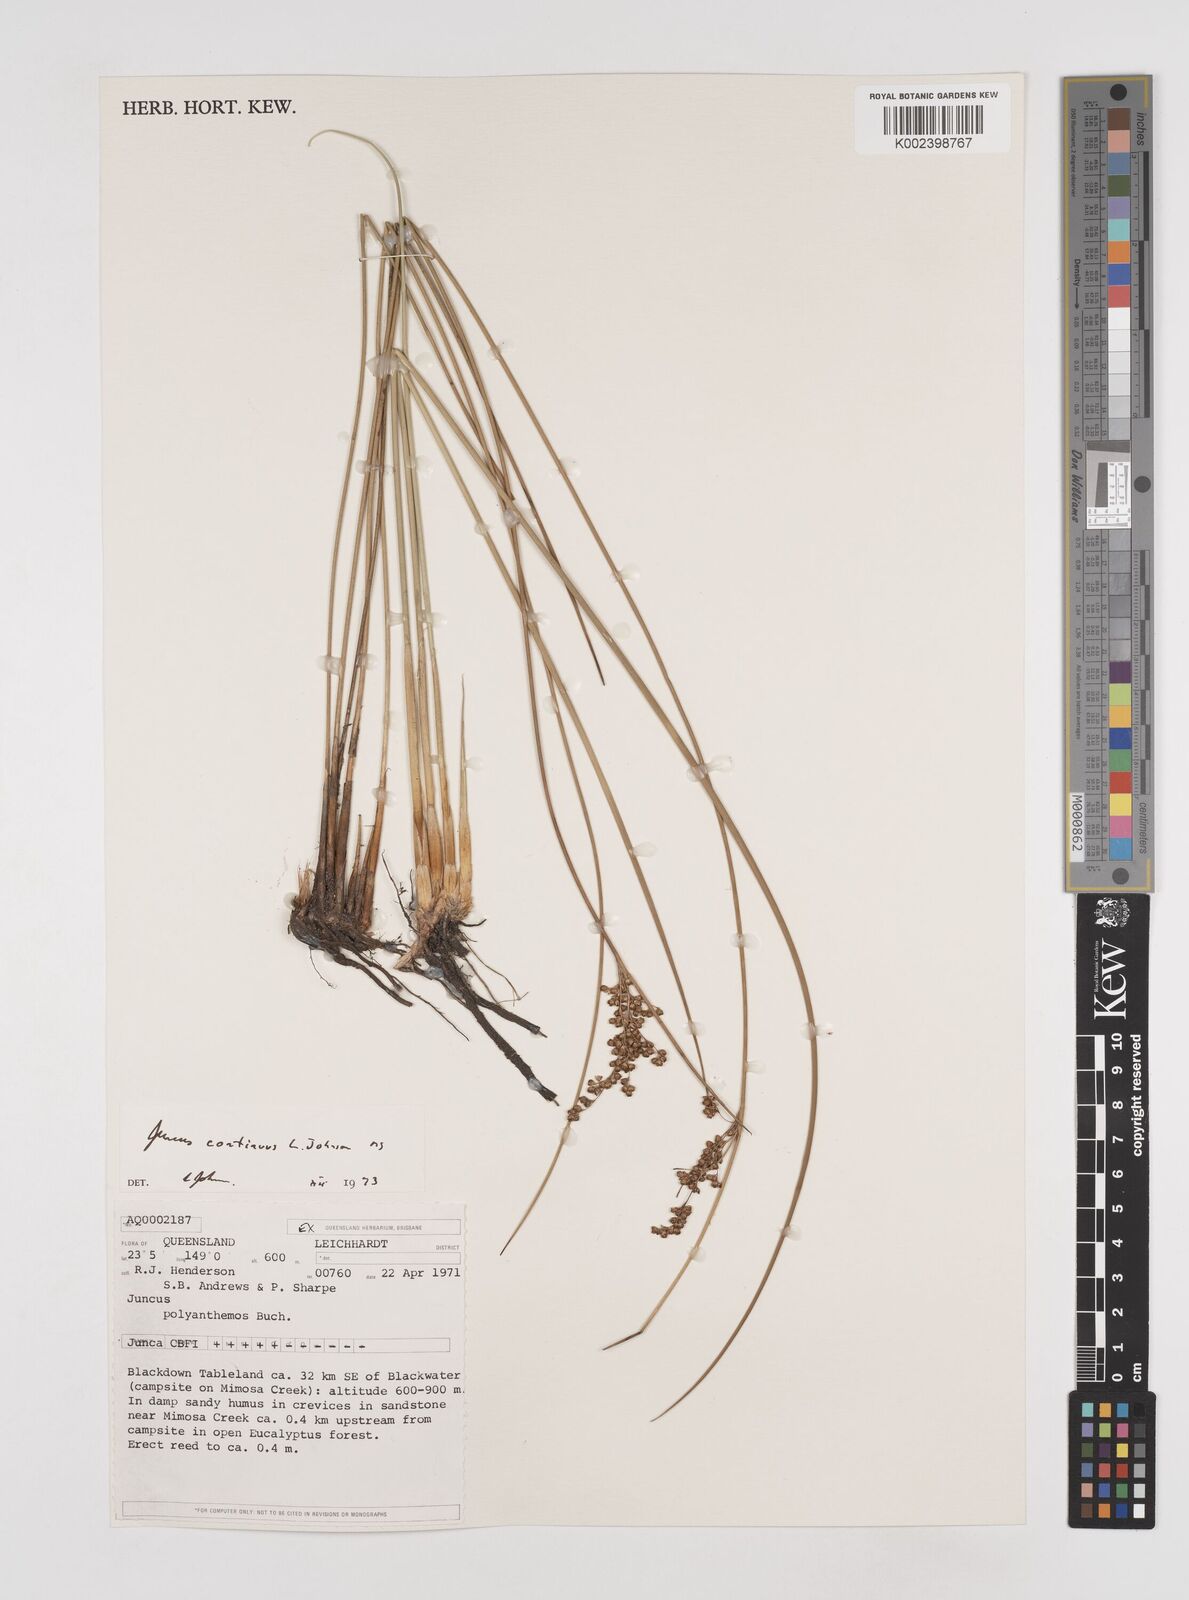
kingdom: Plantae
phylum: Tracheophyta
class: Liliopsida
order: Poales
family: Juncaceae
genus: Juncus
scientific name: Juncus continuus
